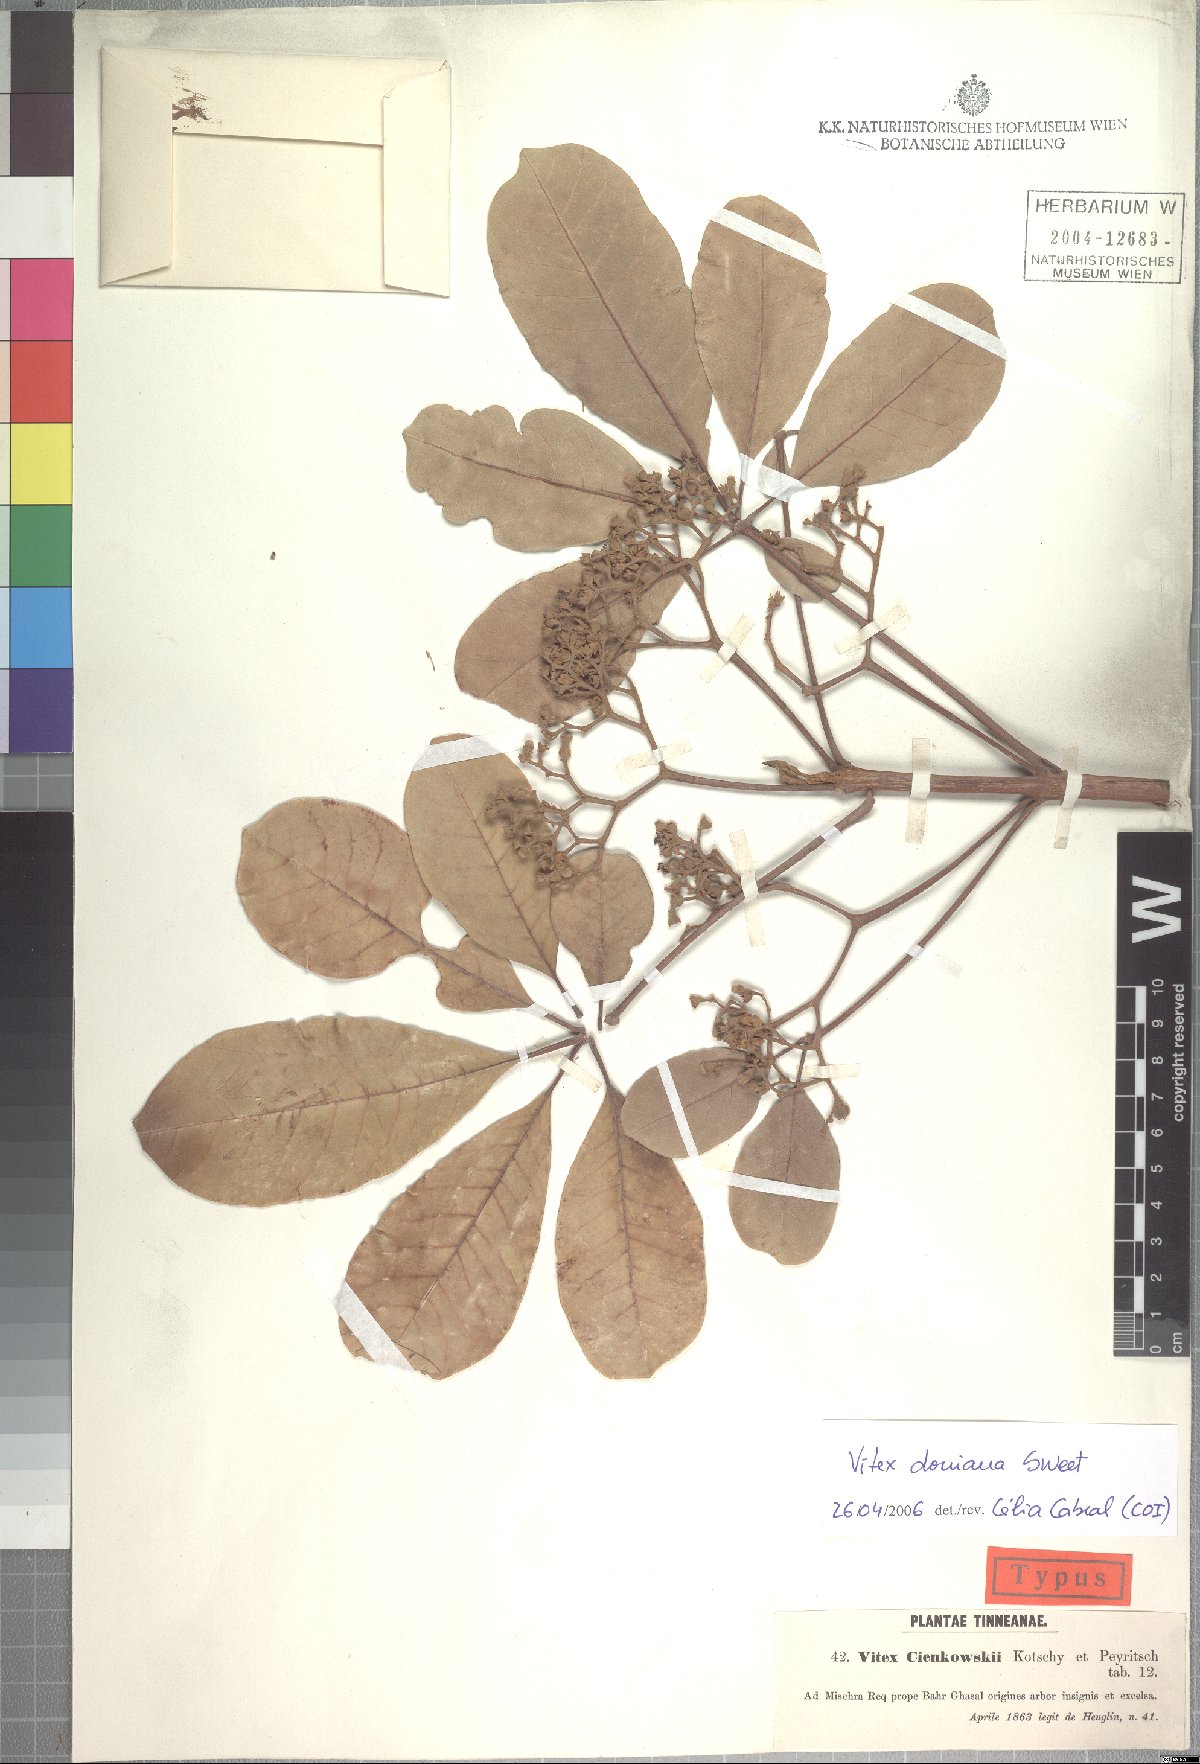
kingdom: Plantae
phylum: Tracheophyta
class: Magnoliopsida
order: Lamiales
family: Lamiaceae
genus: Vitex
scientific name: Vitex doniana
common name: Black plum
